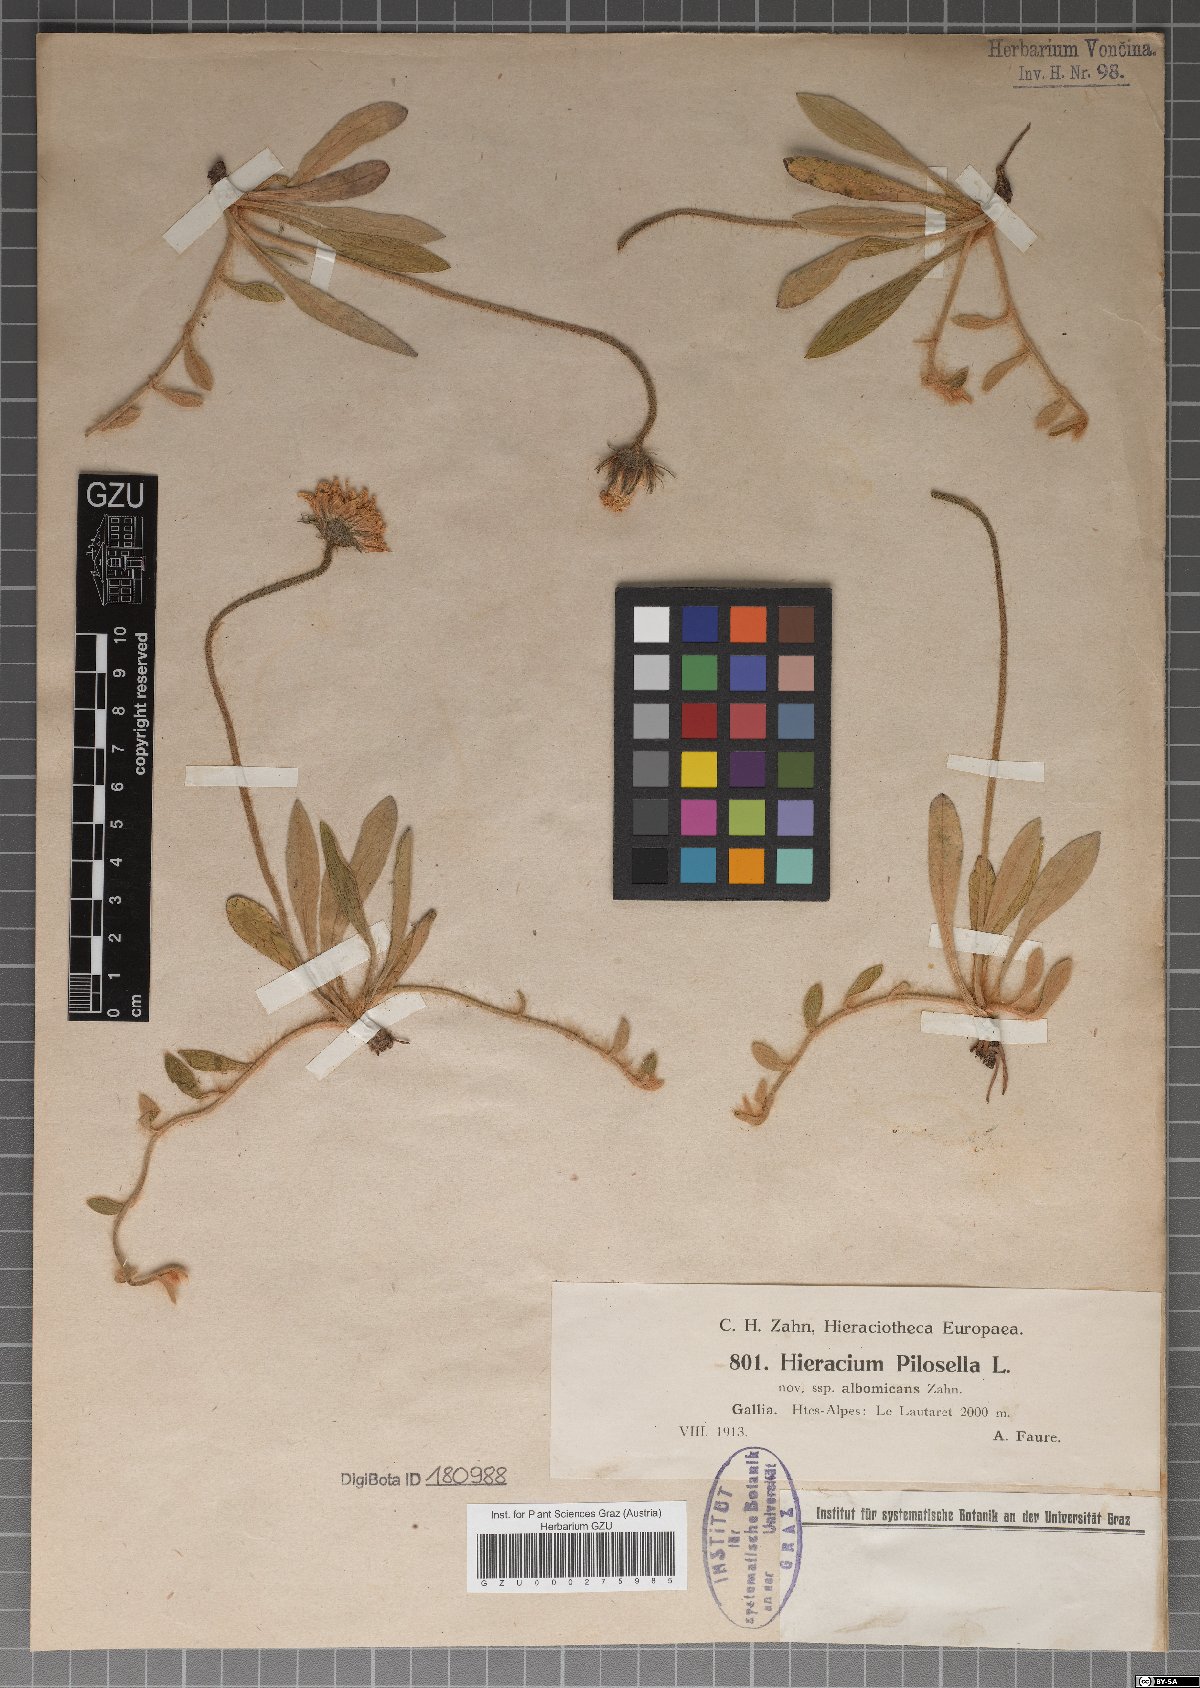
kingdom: Plantae
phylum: Tracheophyta
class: Magnoliopsida
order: Asterales
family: Asteraceae
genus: Pilosella
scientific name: Pilosella officinarum
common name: Mouse-ear hawkweed
